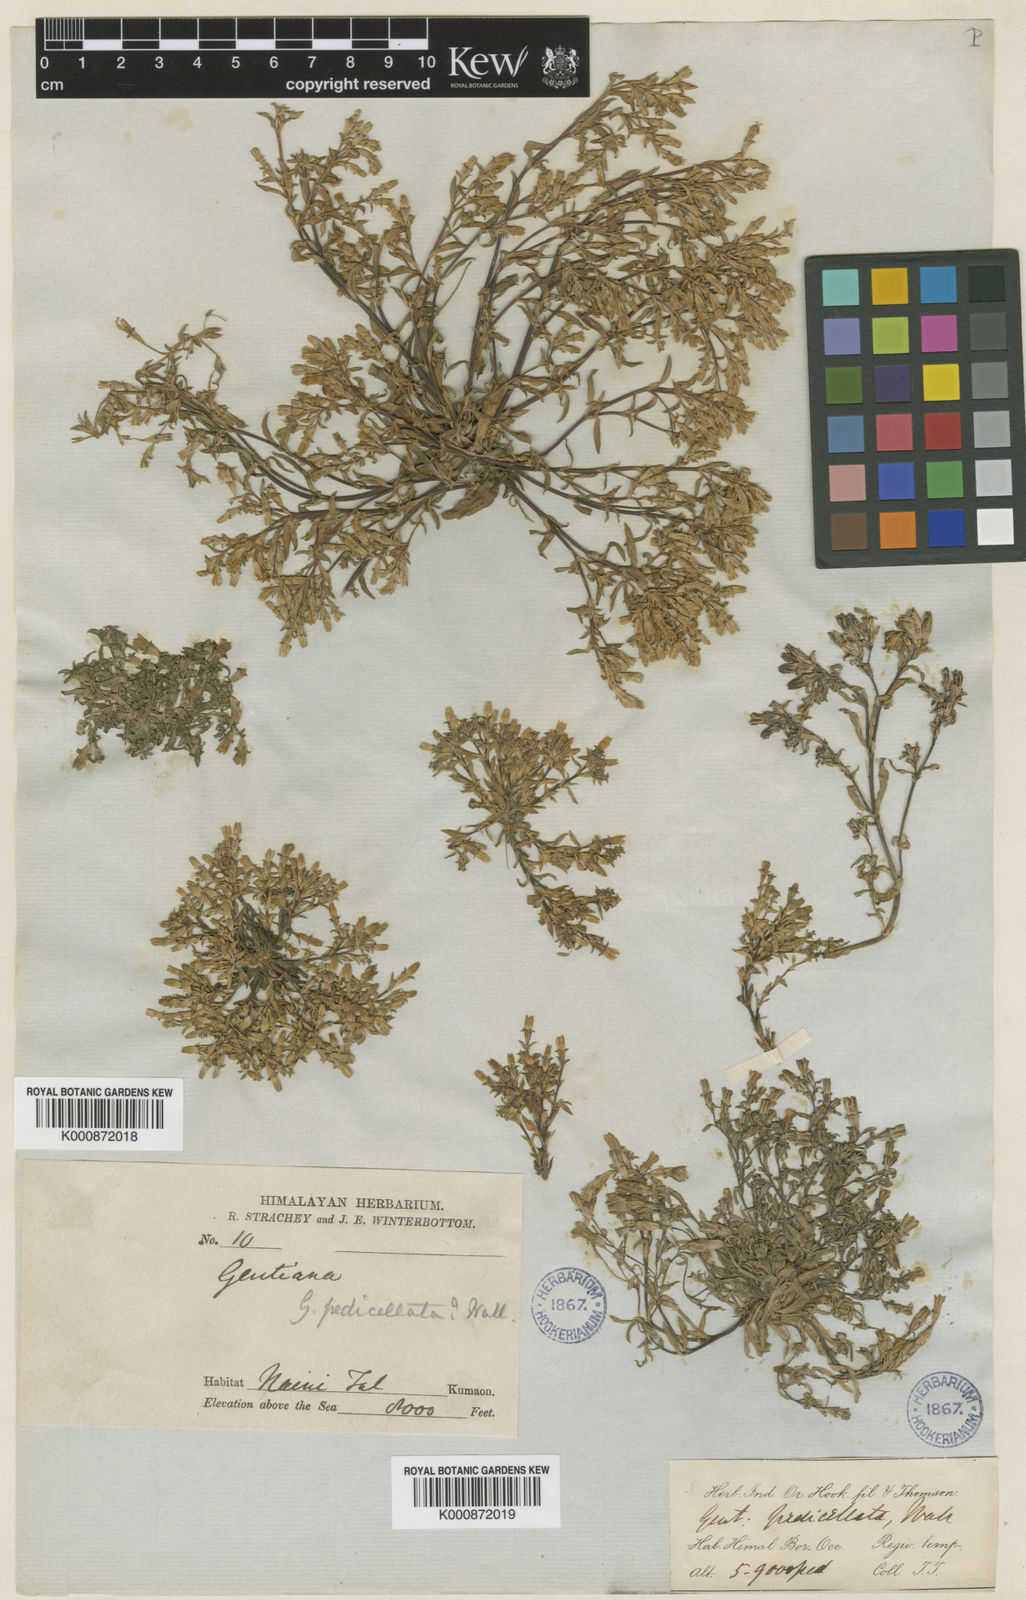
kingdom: Plantae
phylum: Tracheophyta
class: Magnoliopsida
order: Gentianales
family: Gentianaceae
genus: Gentiana
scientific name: Gentiana pedicellata
